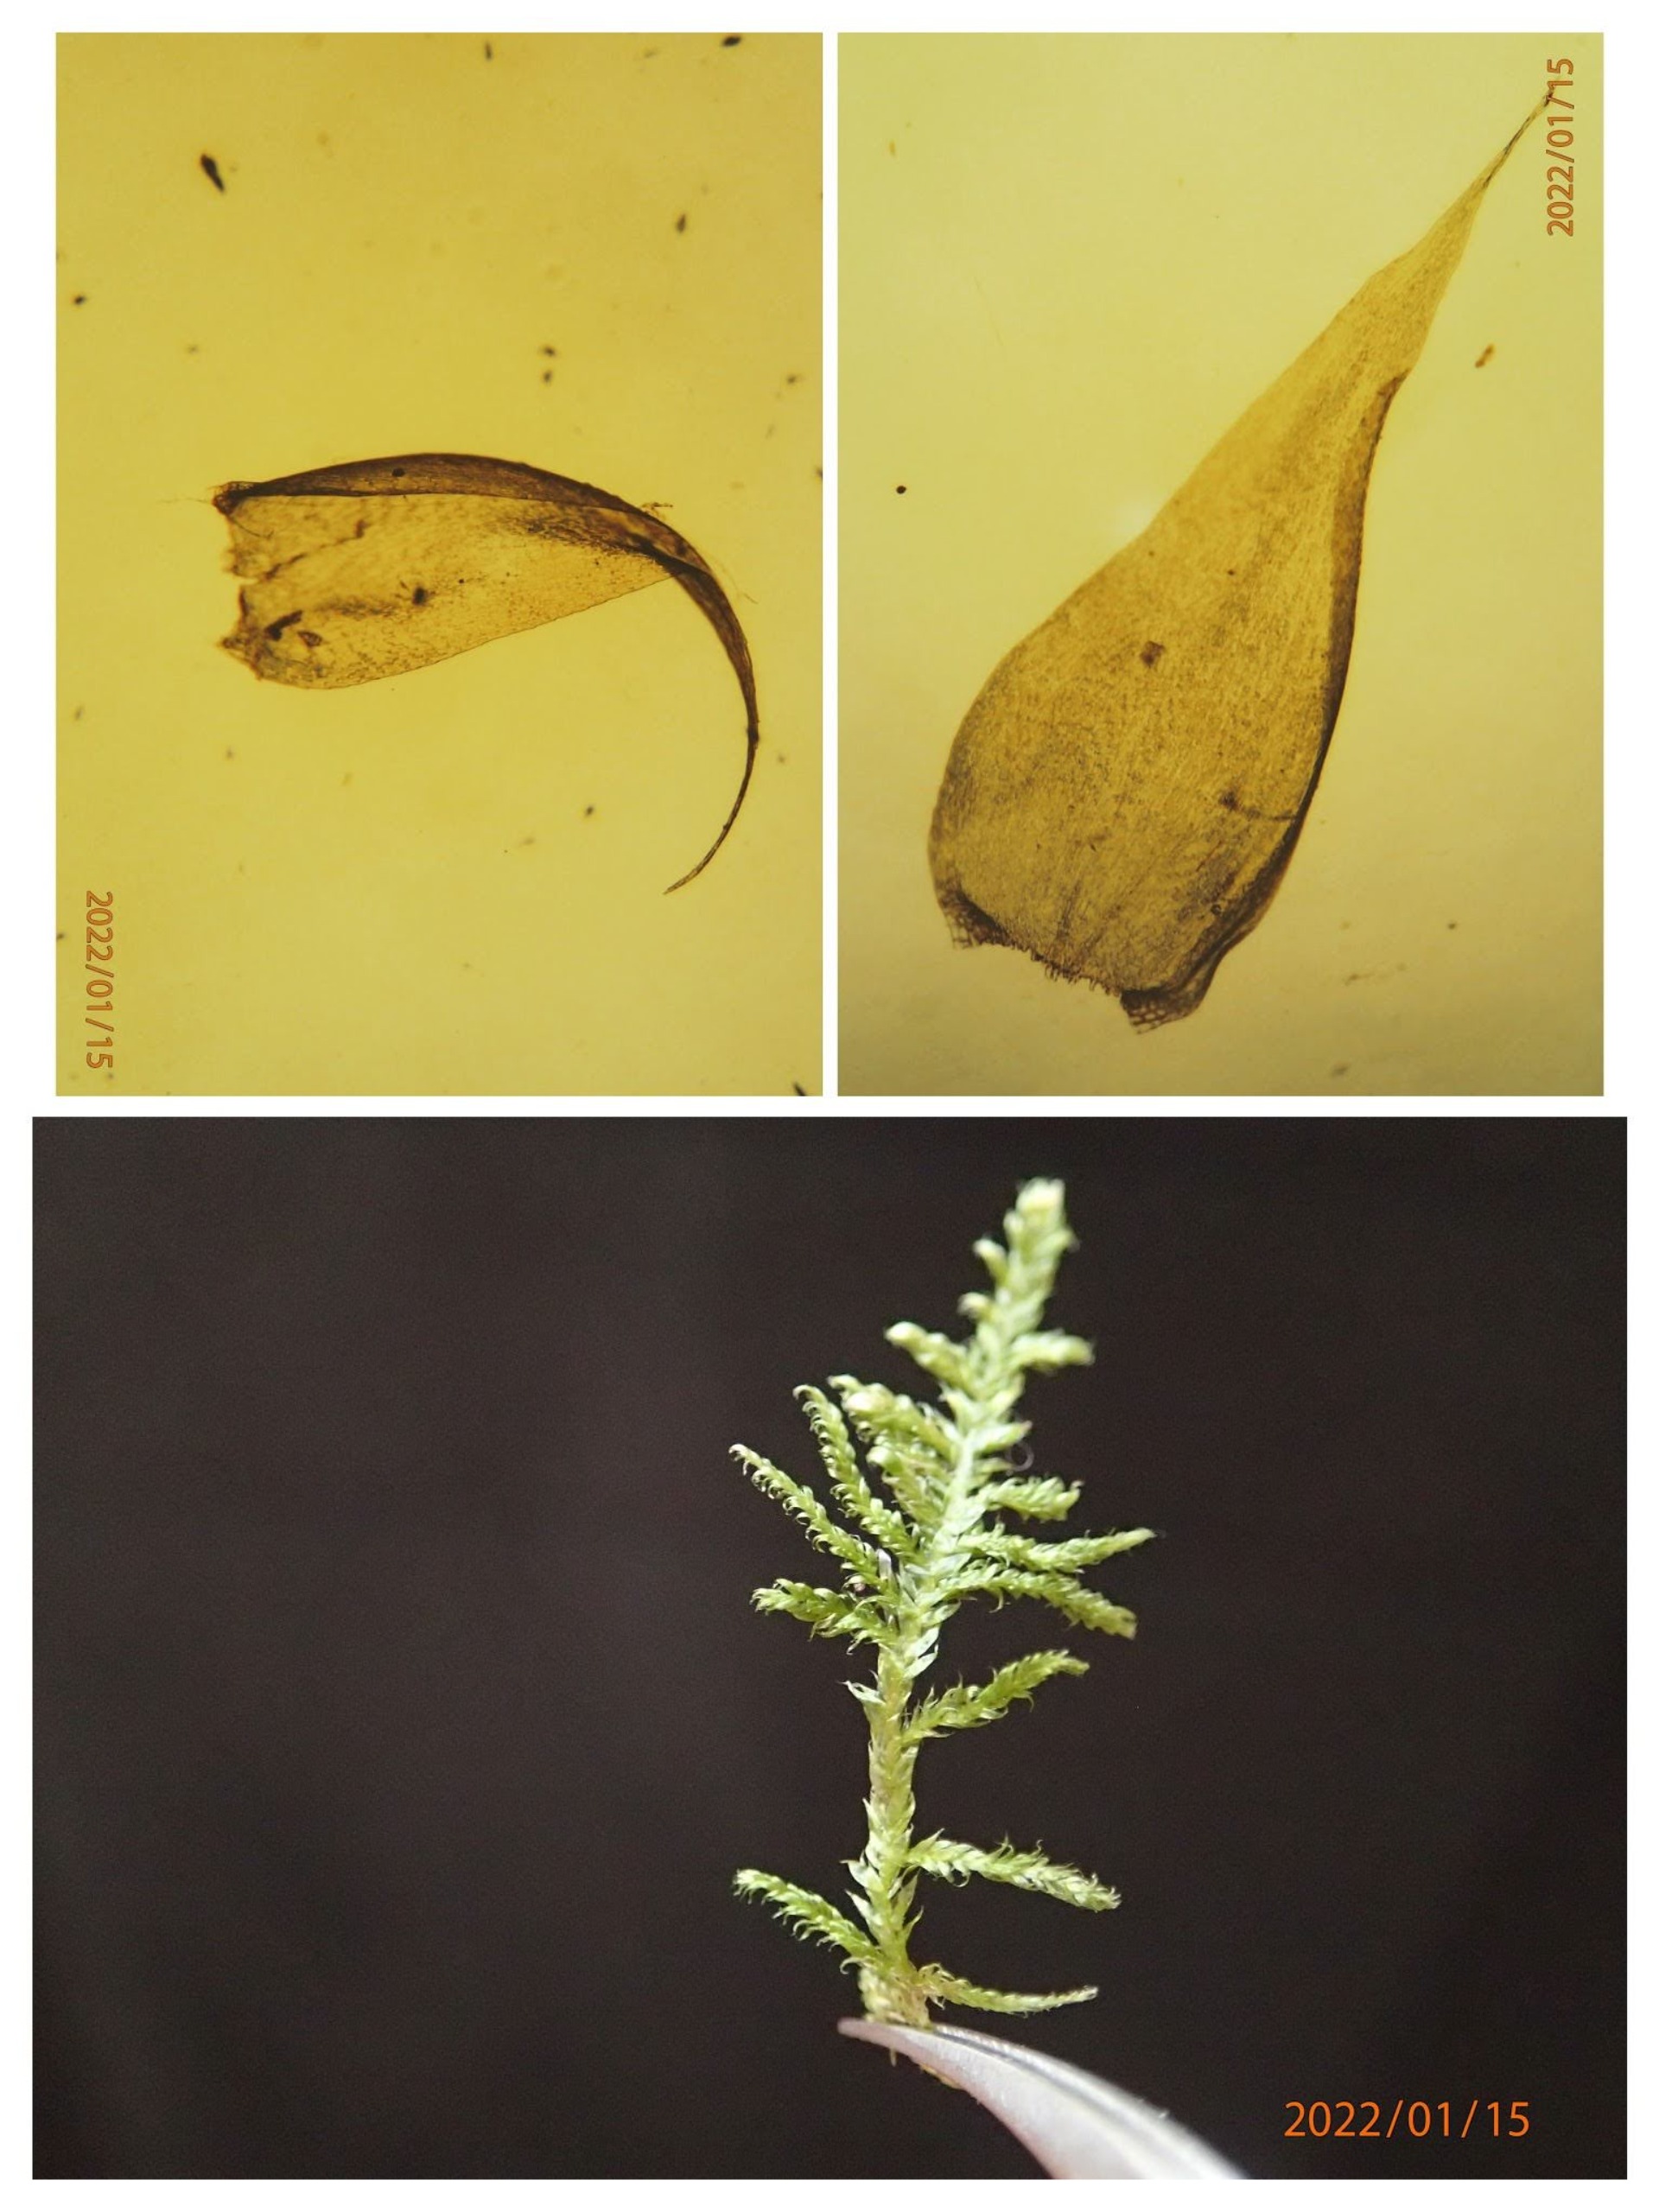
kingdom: Plantae
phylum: Bryophyta
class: Bryopsida
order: Hypnales
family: Hypnaceae
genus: Hypnum
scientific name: Hypnum jutlandicum
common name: Hede-cypresmos
